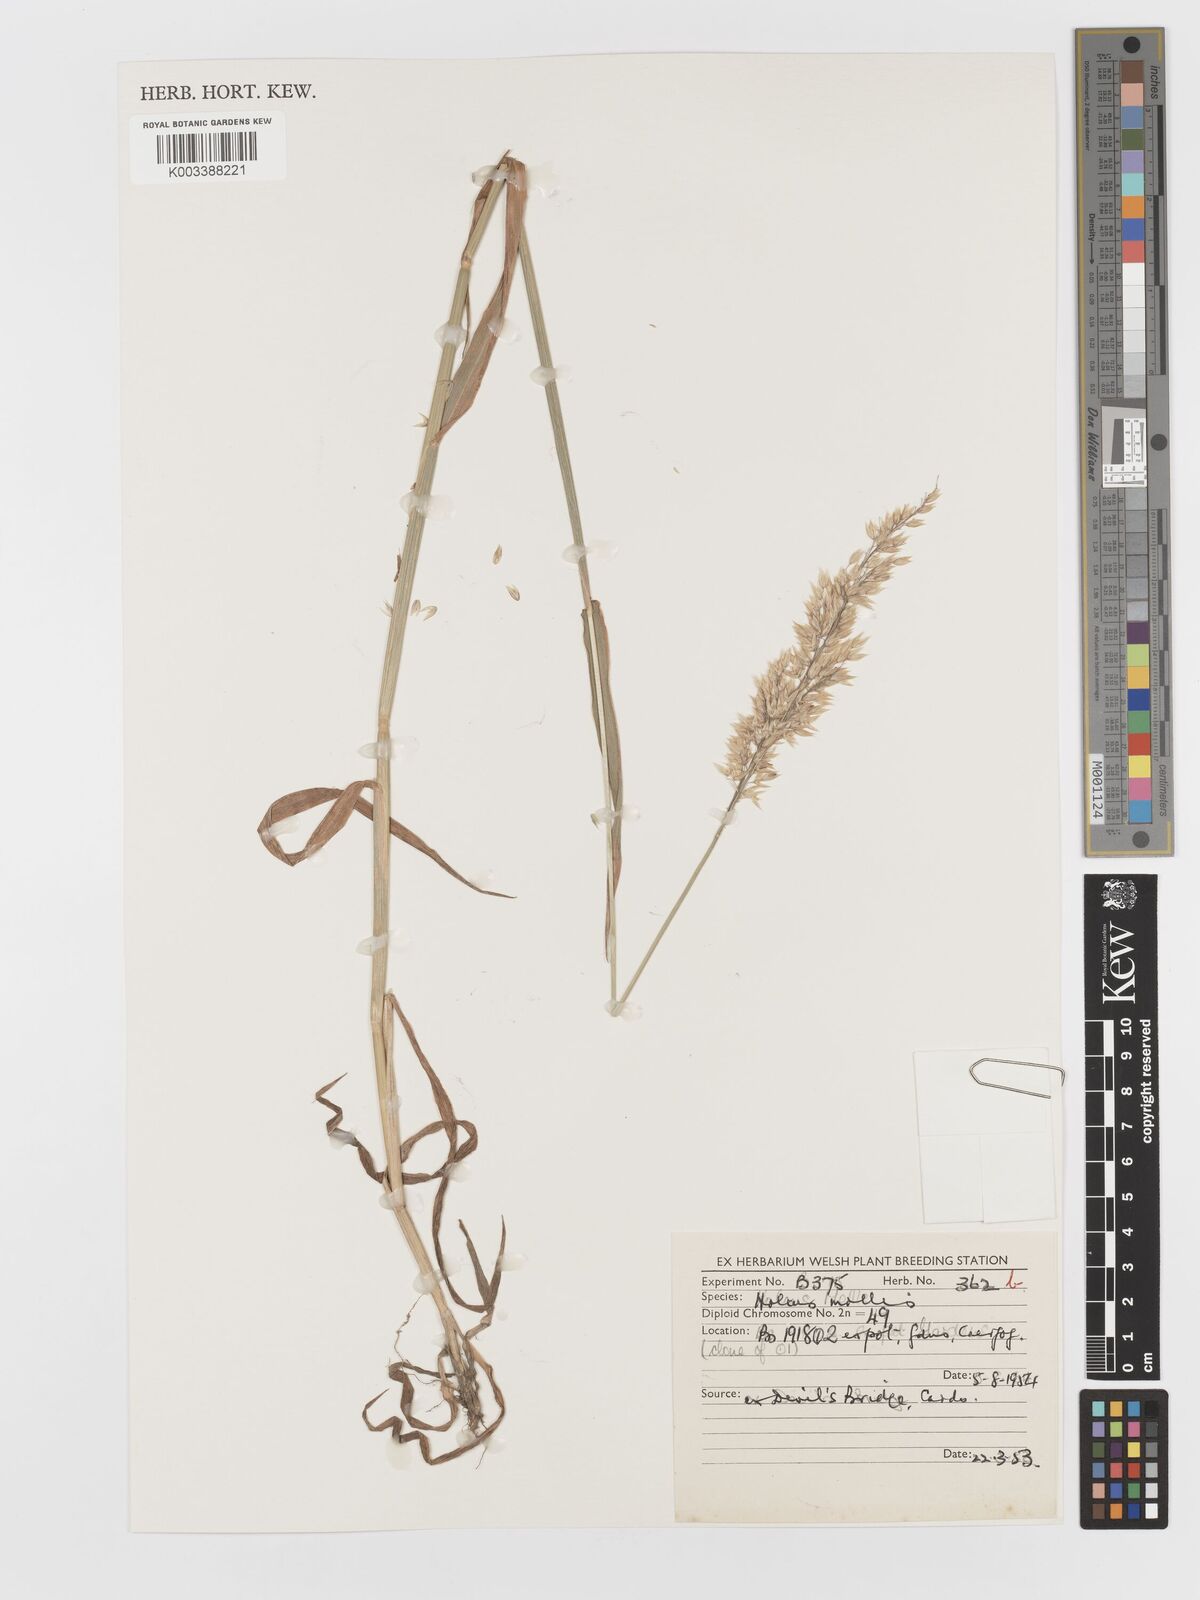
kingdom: Plantae
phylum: Tracheophyta
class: Liliopsida
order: Poales
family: Poaceae
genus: Holcus
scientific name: Holcus mollis
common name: Creeping velvetgrass
